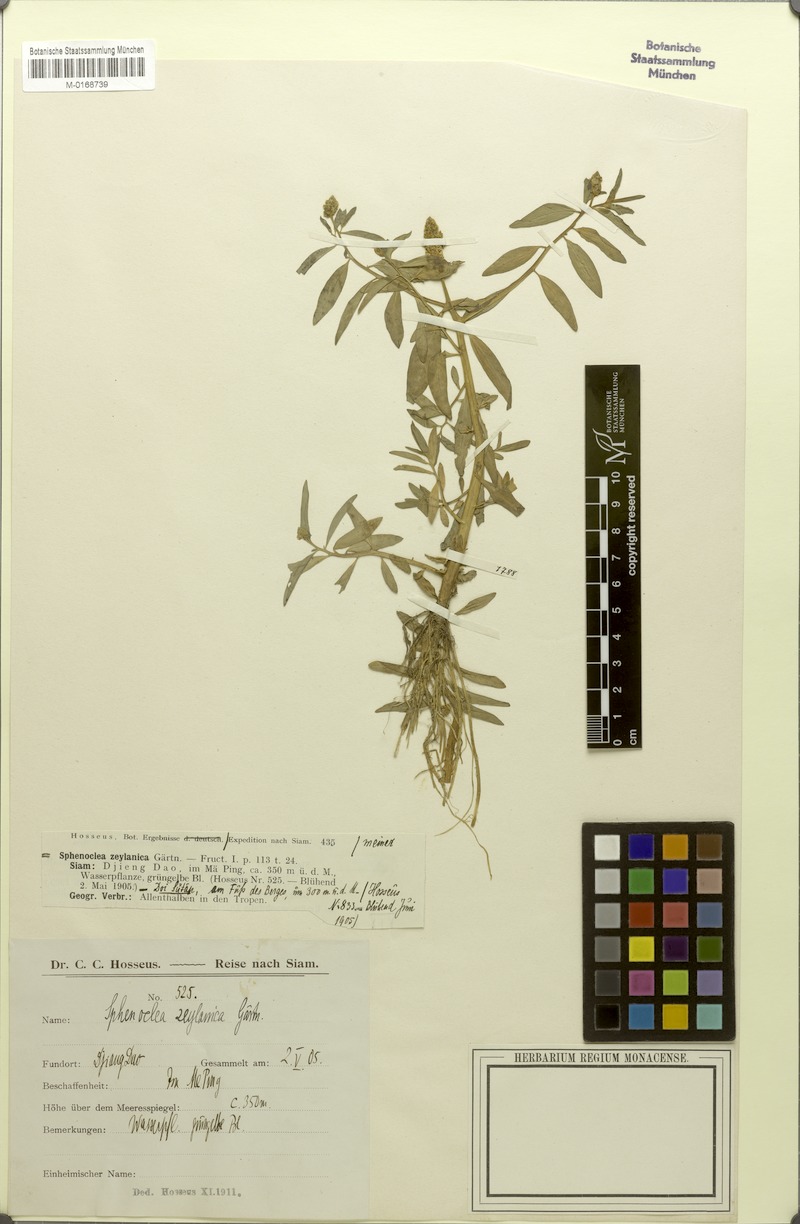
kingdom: Plantae
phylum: Tracheophyta
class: Magnoliopsida
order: Solanales
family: Sphenocleaceae
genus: Sphenoclea
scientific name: Sphenoclea zeylanica
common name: Chickenspike
